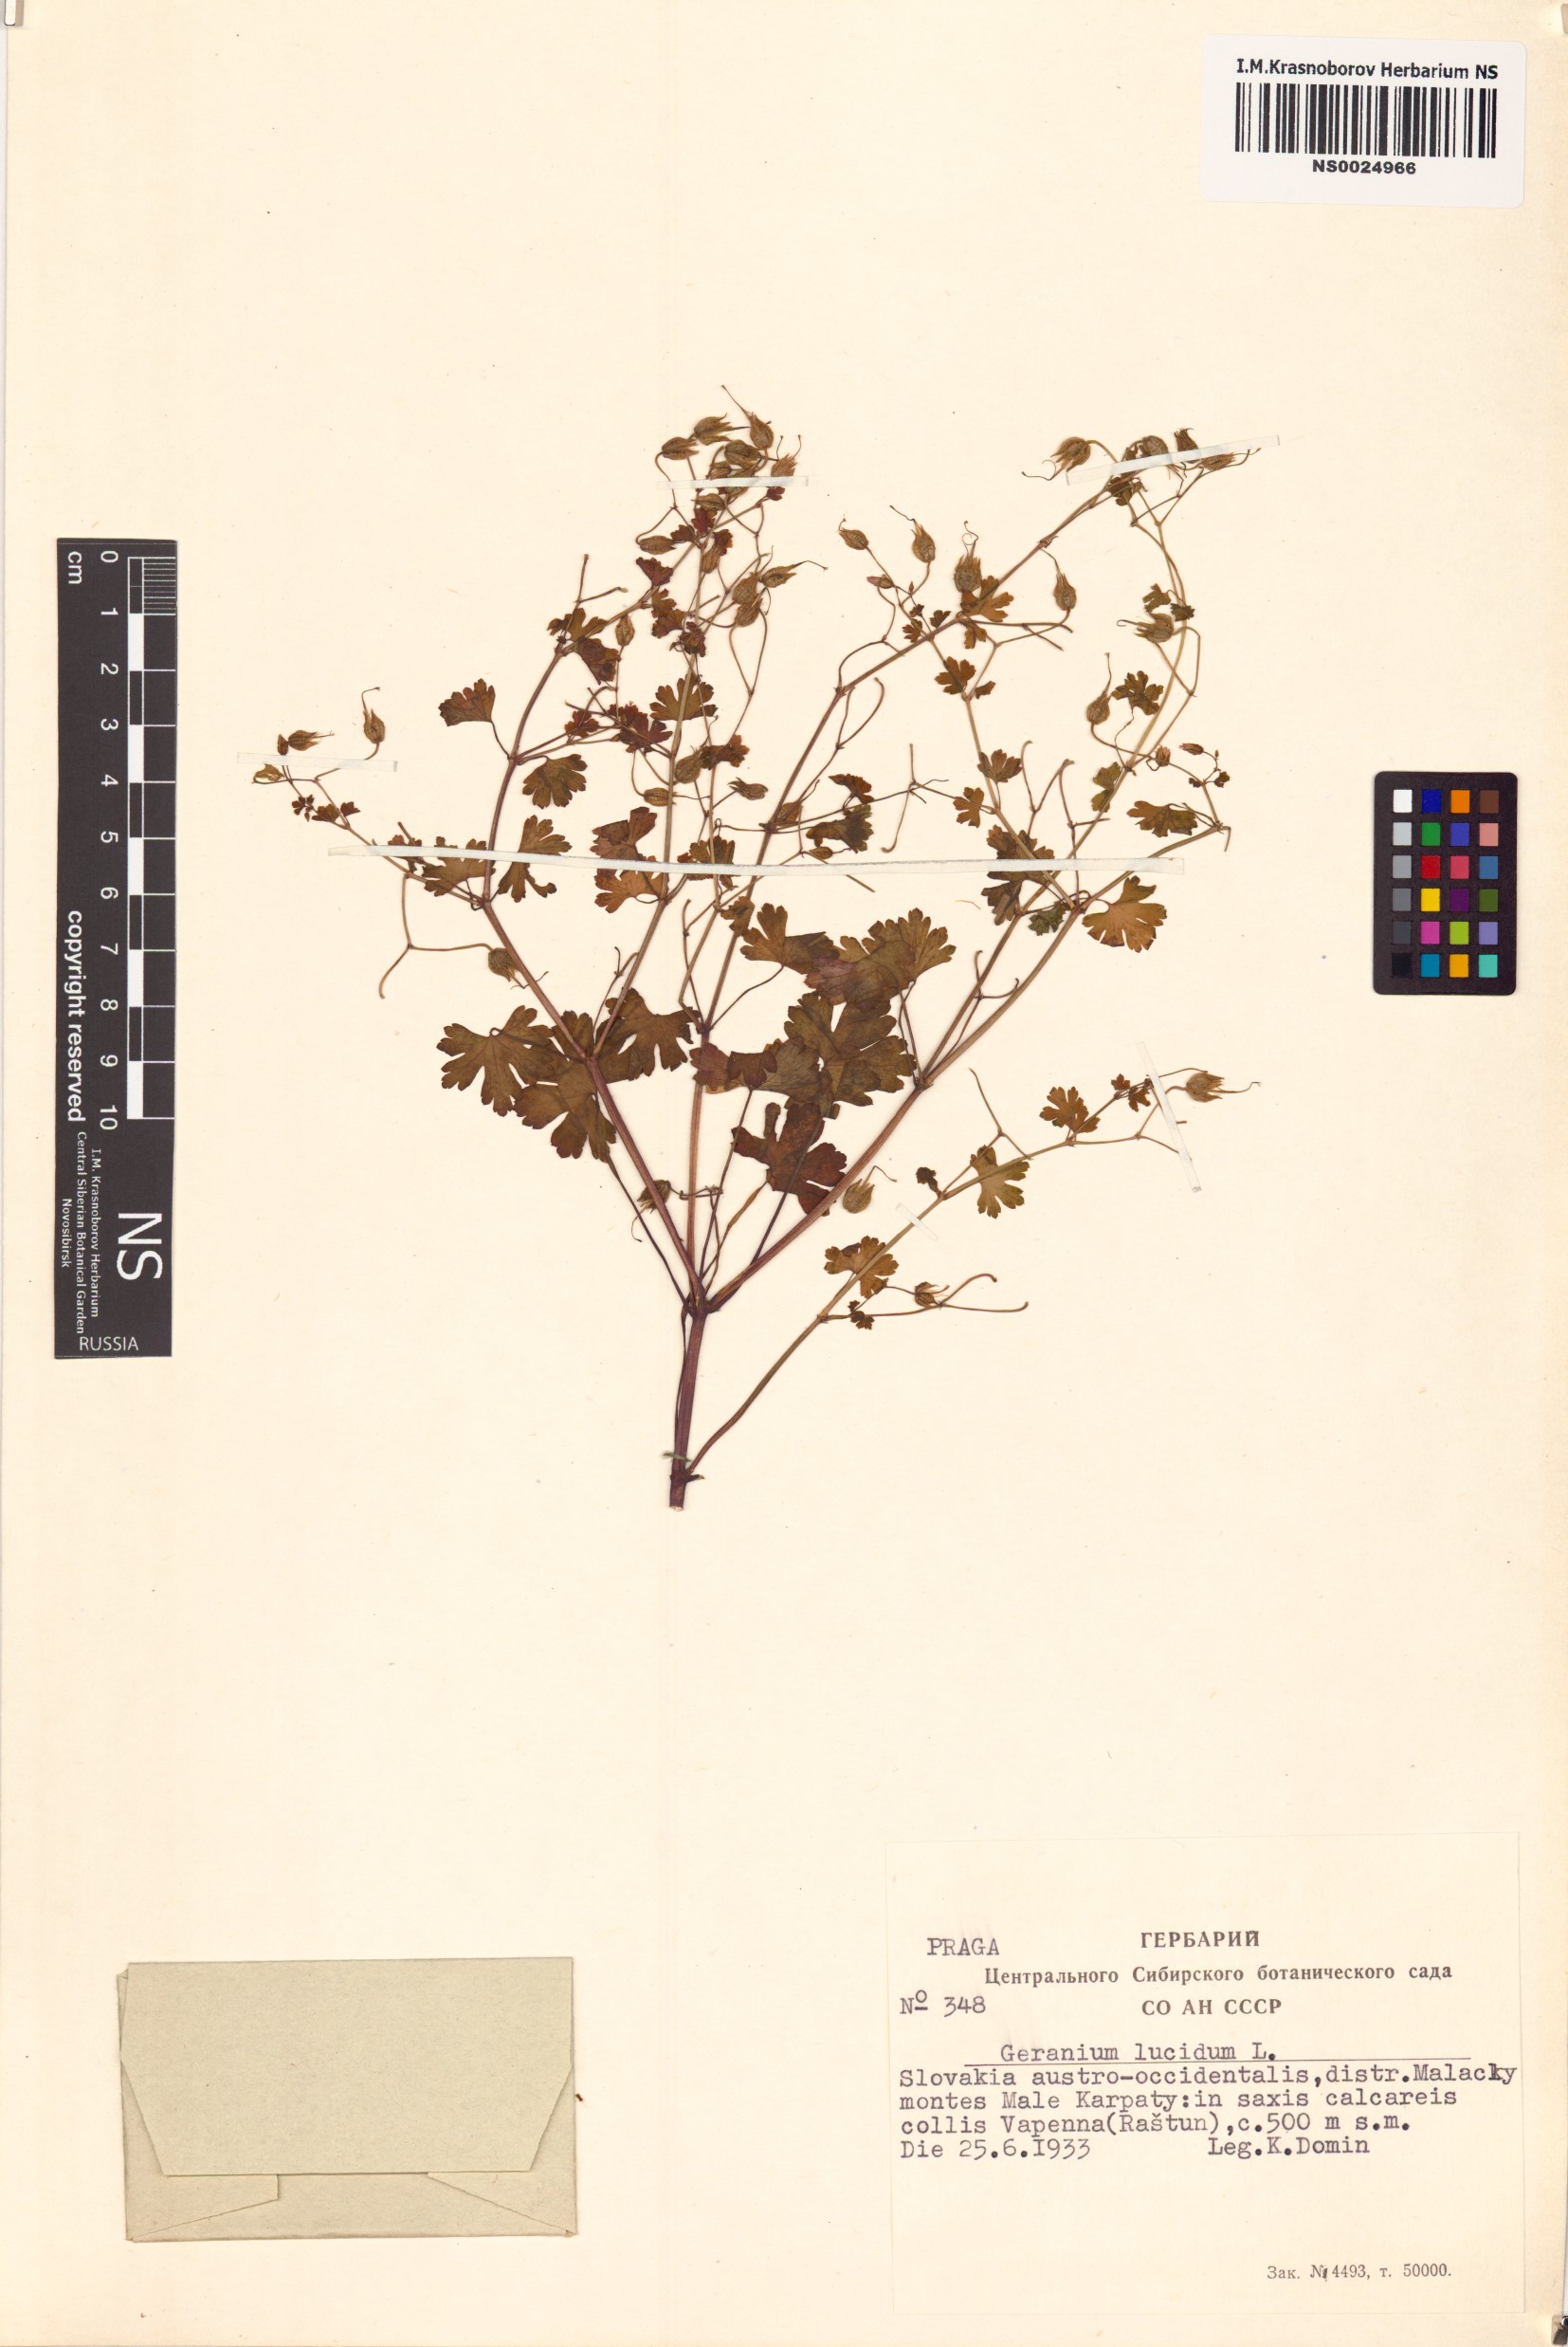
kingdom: Plantae
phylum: Tracheophyta
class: Magnoliopsida
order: Geraniales
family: Geraniaceae
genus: Geranium
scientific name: Geranium lucidum
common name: Shining crane's-bill
